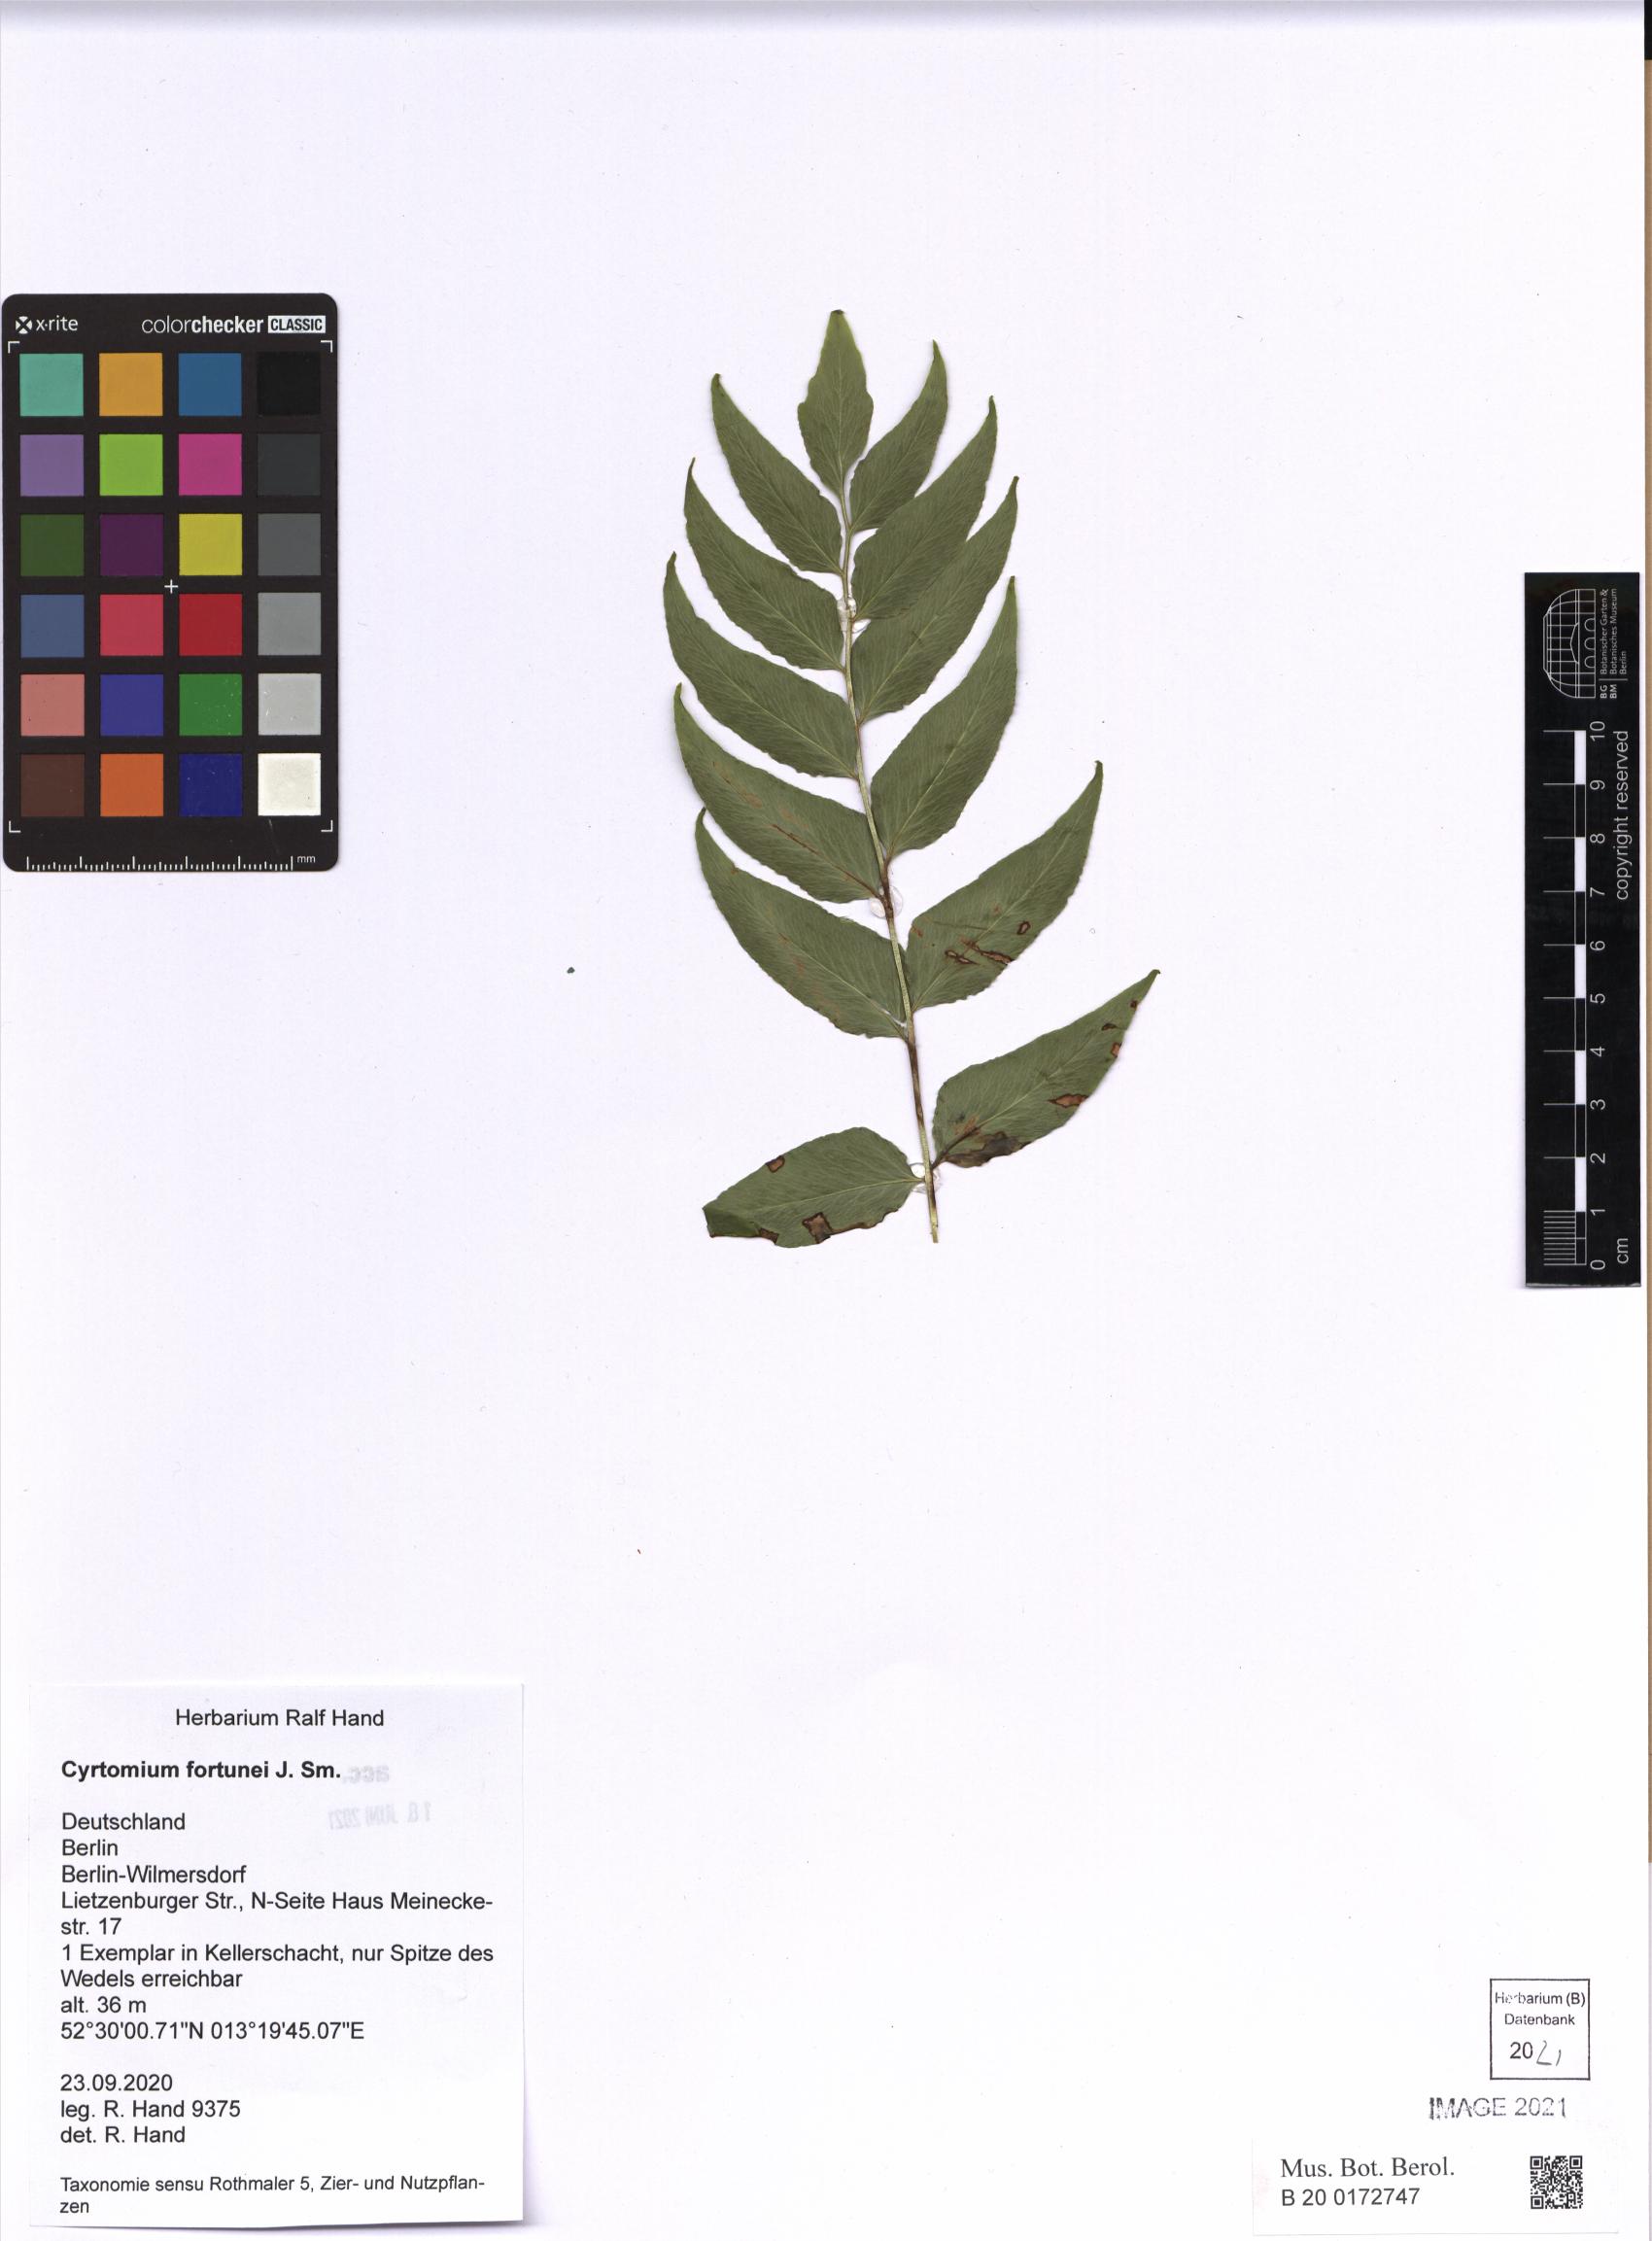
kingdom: Plantae
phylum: Tracheophyta
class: Polypodiopsida
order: Polypodiales
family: Dryopteridaceae
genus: Cyrtomium
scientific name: Cyrtomium fortunei
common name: Asian netvein hollyfern
